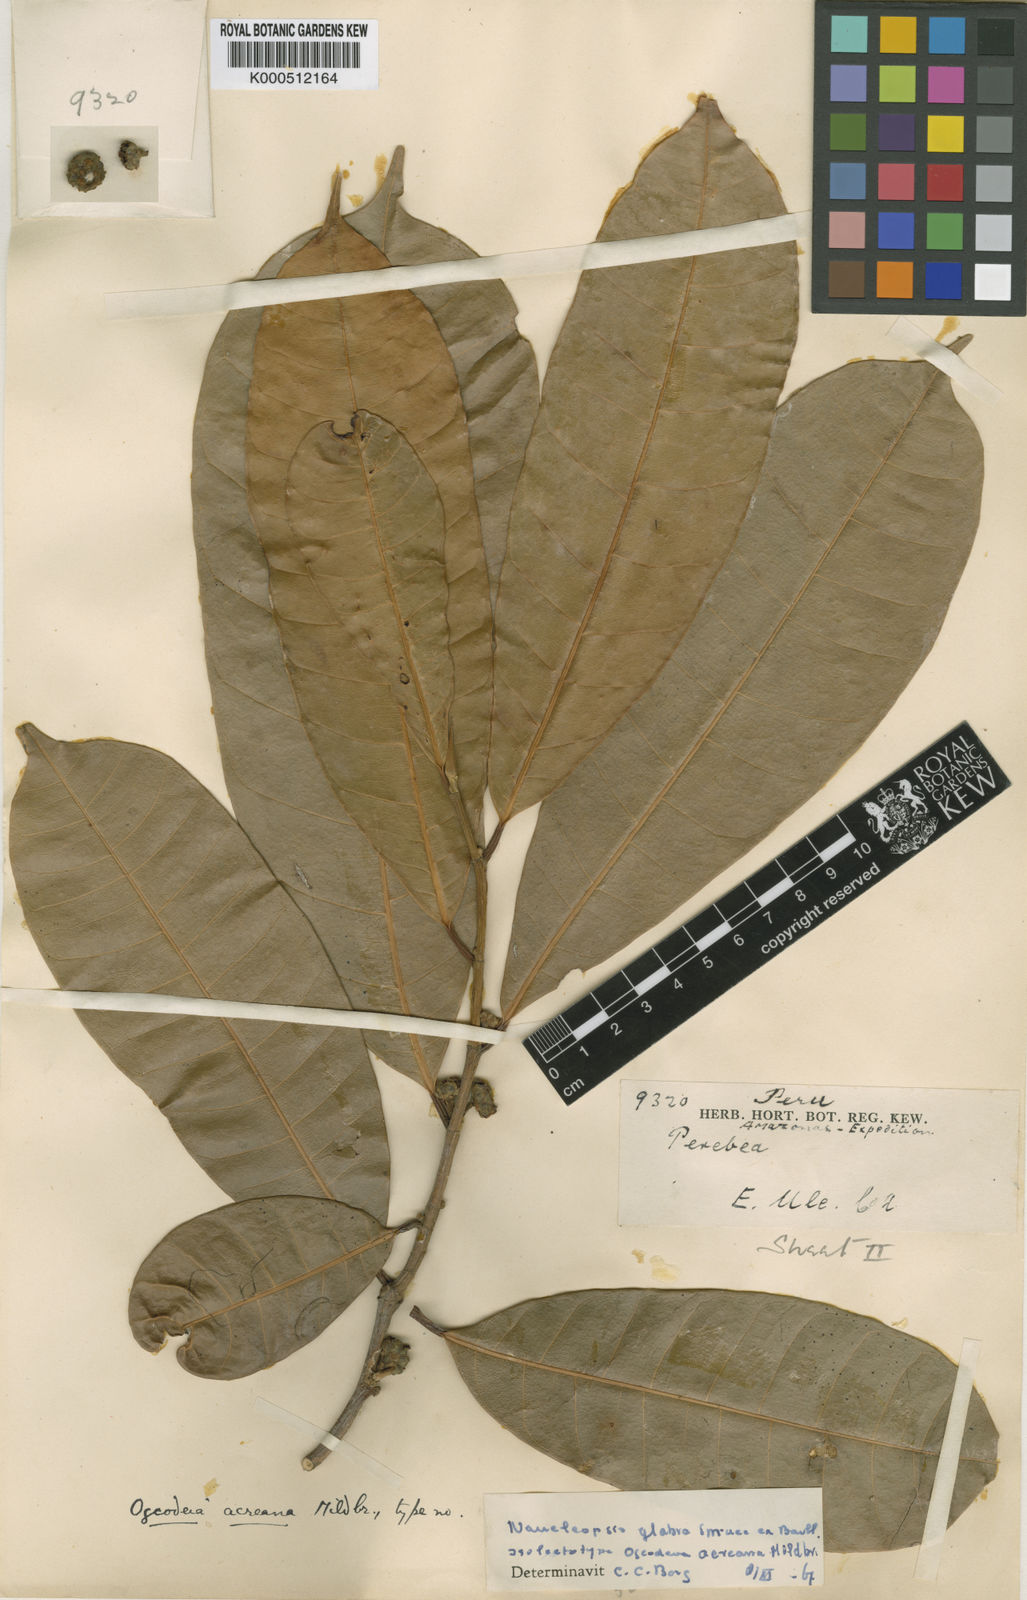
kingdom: Plantae
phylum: Tracheophyta
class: Magnoliopsida
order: Rosales
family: Moraceae
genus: Naucleopsis
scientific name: Naucleopsis glabra
